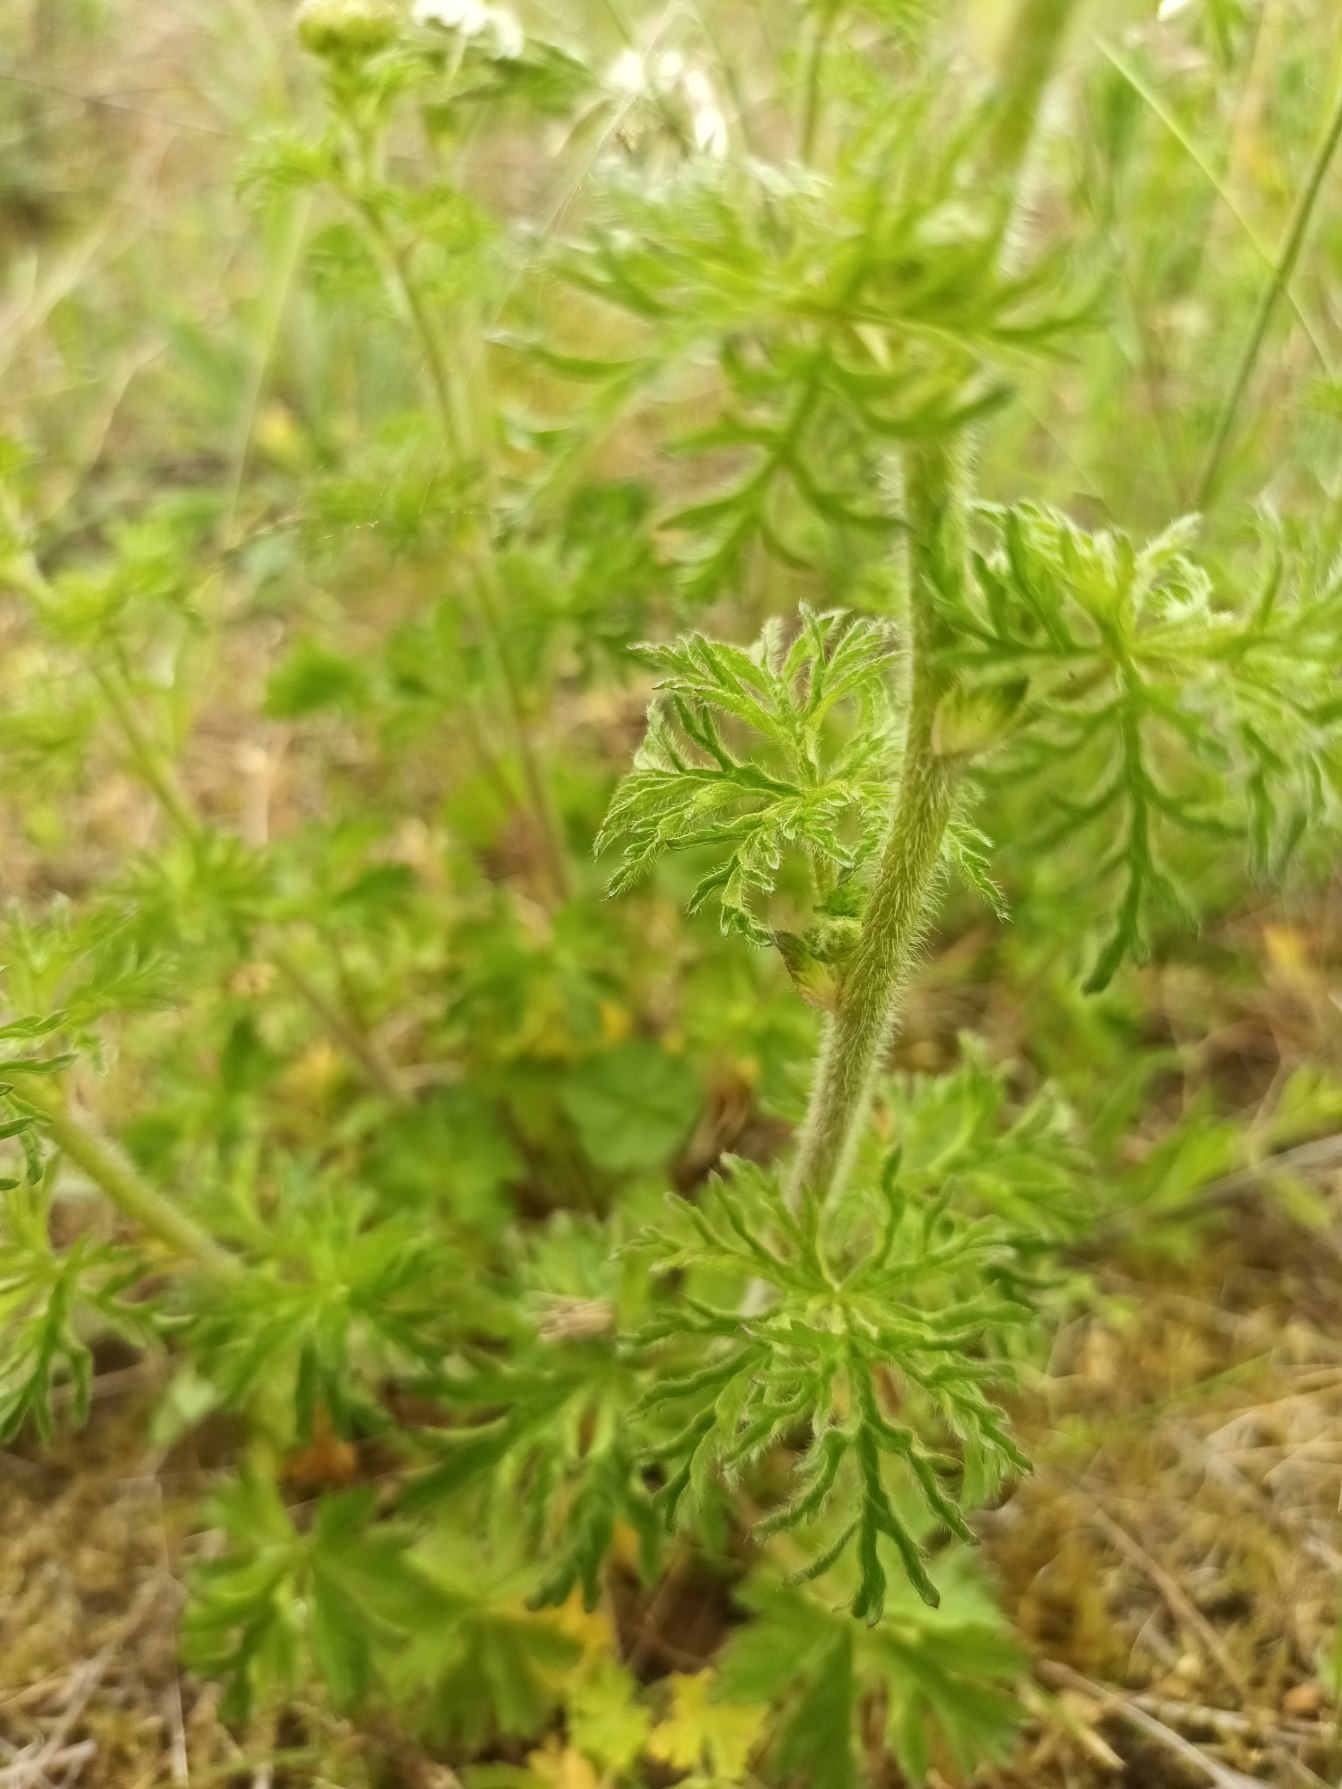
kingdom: Plantae
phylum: Tracheophyta
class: Magnoliopsida
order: Malvales
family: Malvaceae
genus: Malva
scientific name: Malva moschata
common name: Moskus-katost
